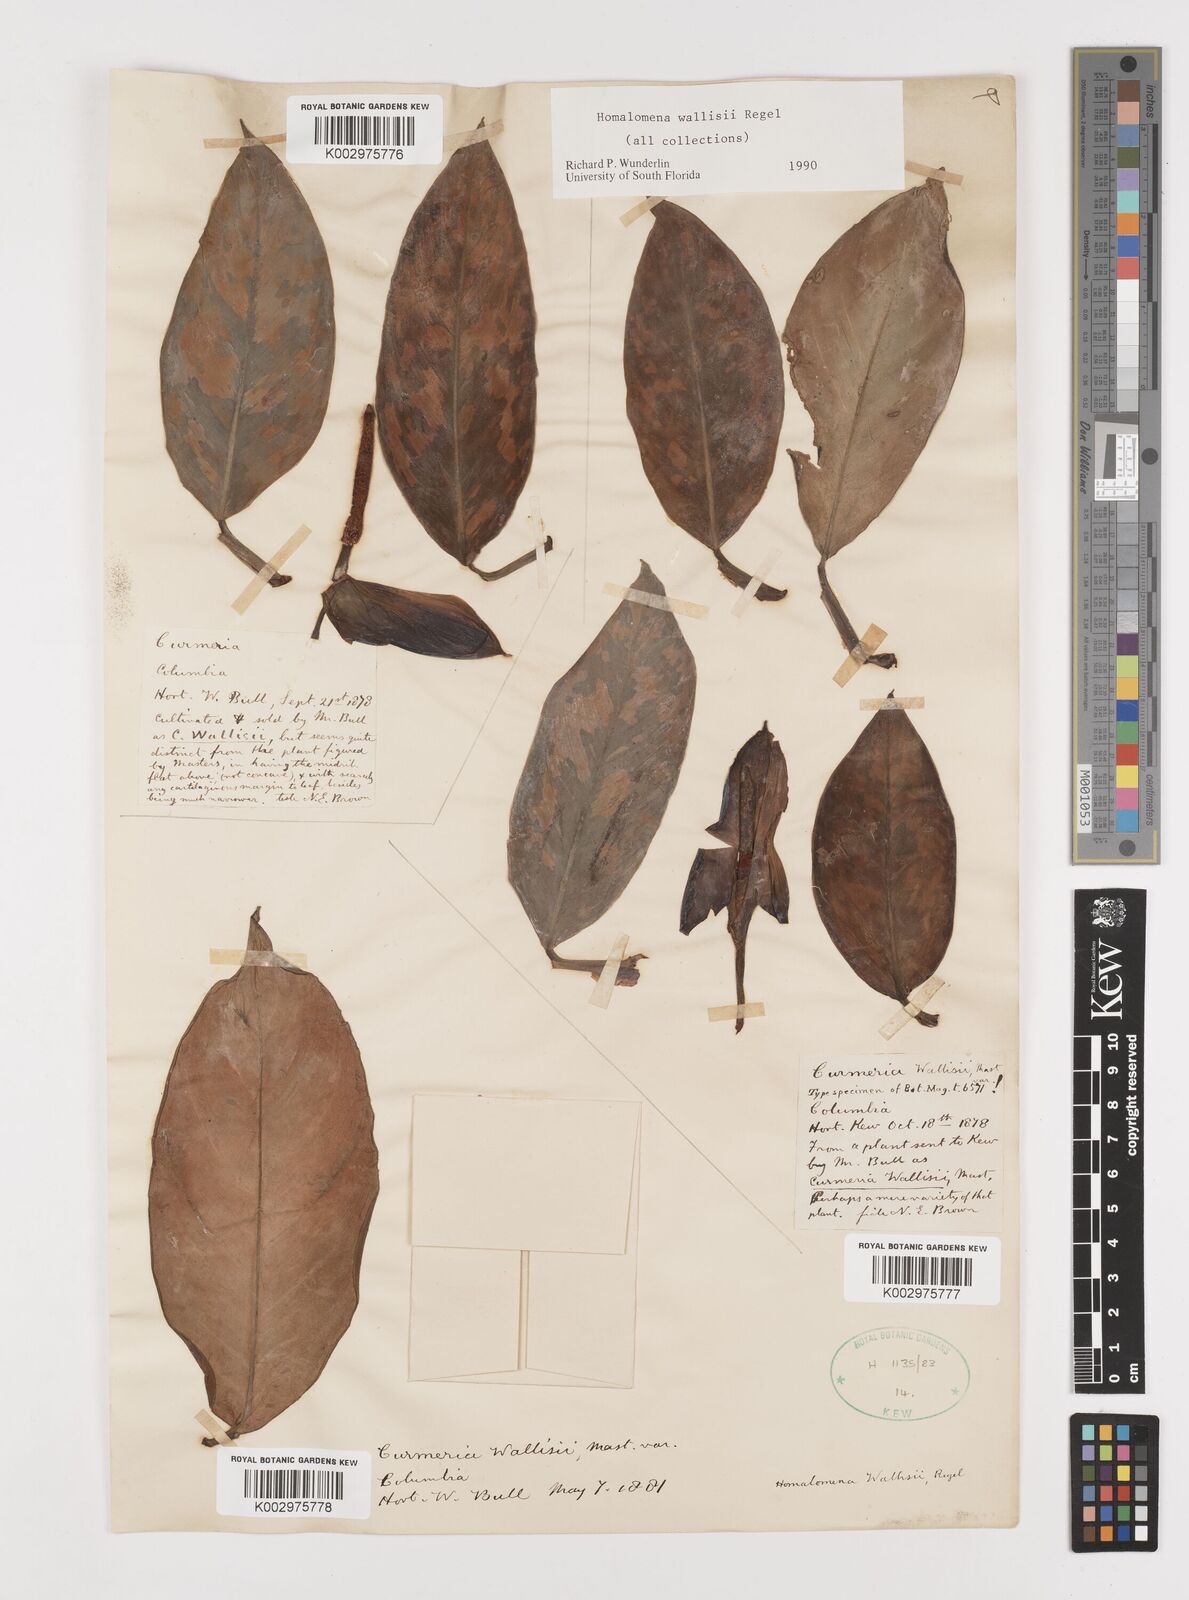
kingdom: Plantae
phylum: Tracheophyta
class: Liliopsida
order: Alismatales
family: Araceae
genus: Adelonema
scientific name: Adelonema wallisii
